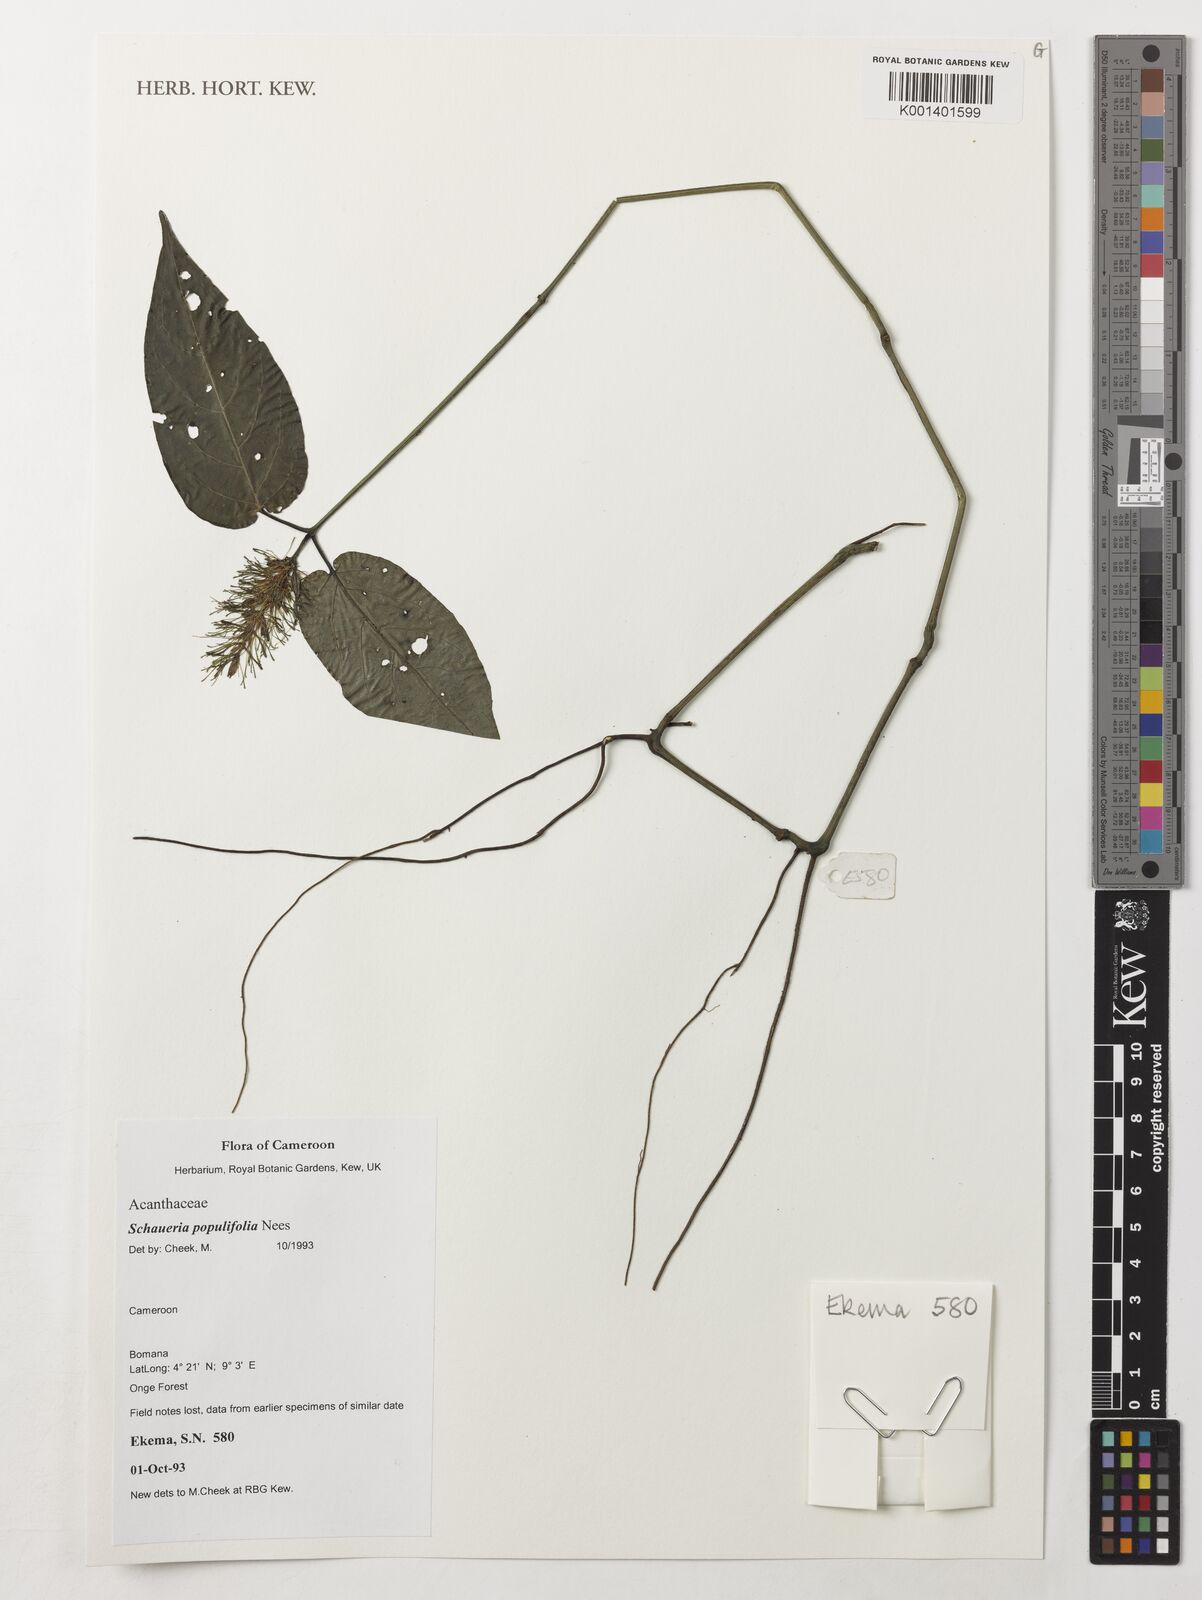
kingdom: Plantae
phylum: Tracheophyta
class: Magnoliopsida
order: Lamiales
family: Acanthaceae
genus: Champluviera
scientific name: Champluviera populifolia
